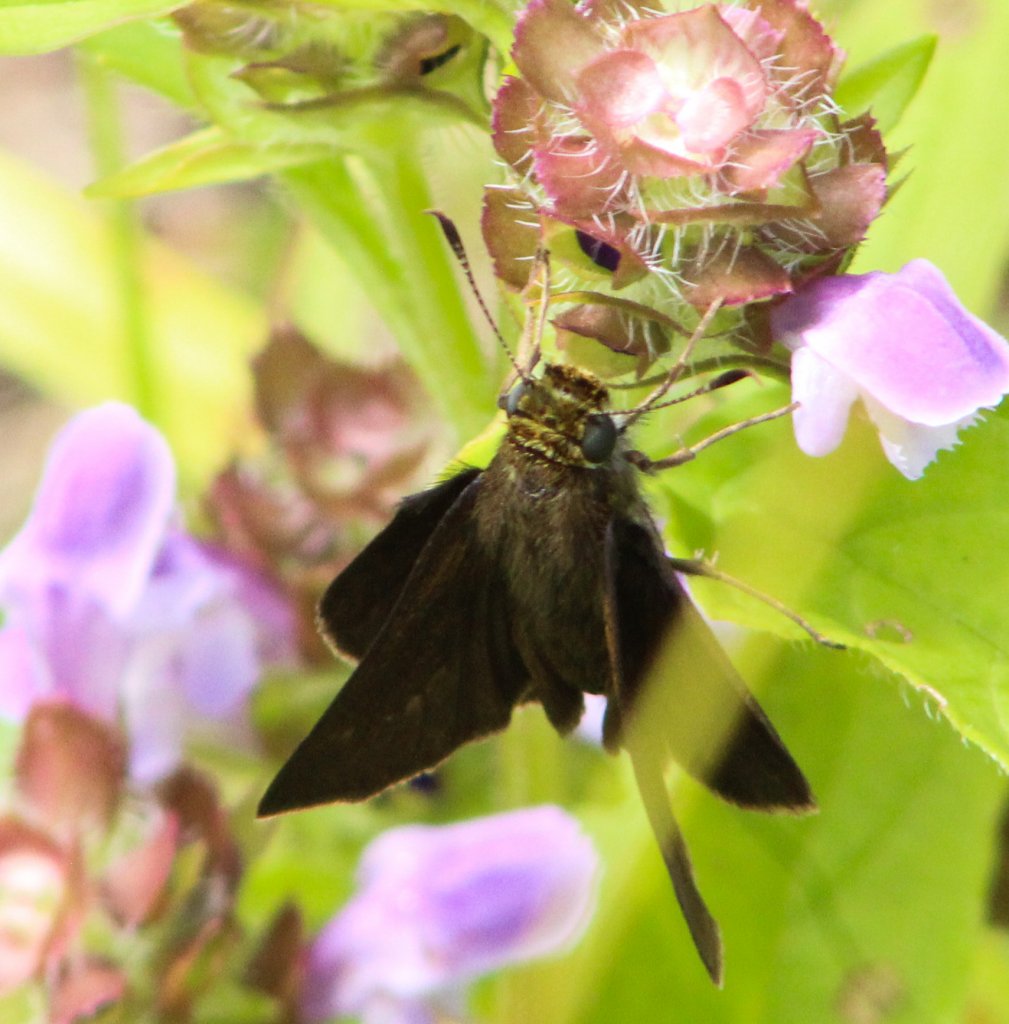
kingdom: Animalia
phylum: Arthropoda
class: Insecta
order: Lepidoptera
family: Hesperiidae
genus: Euphyes
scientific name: Euphyes vestris
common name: Dun Skipper
